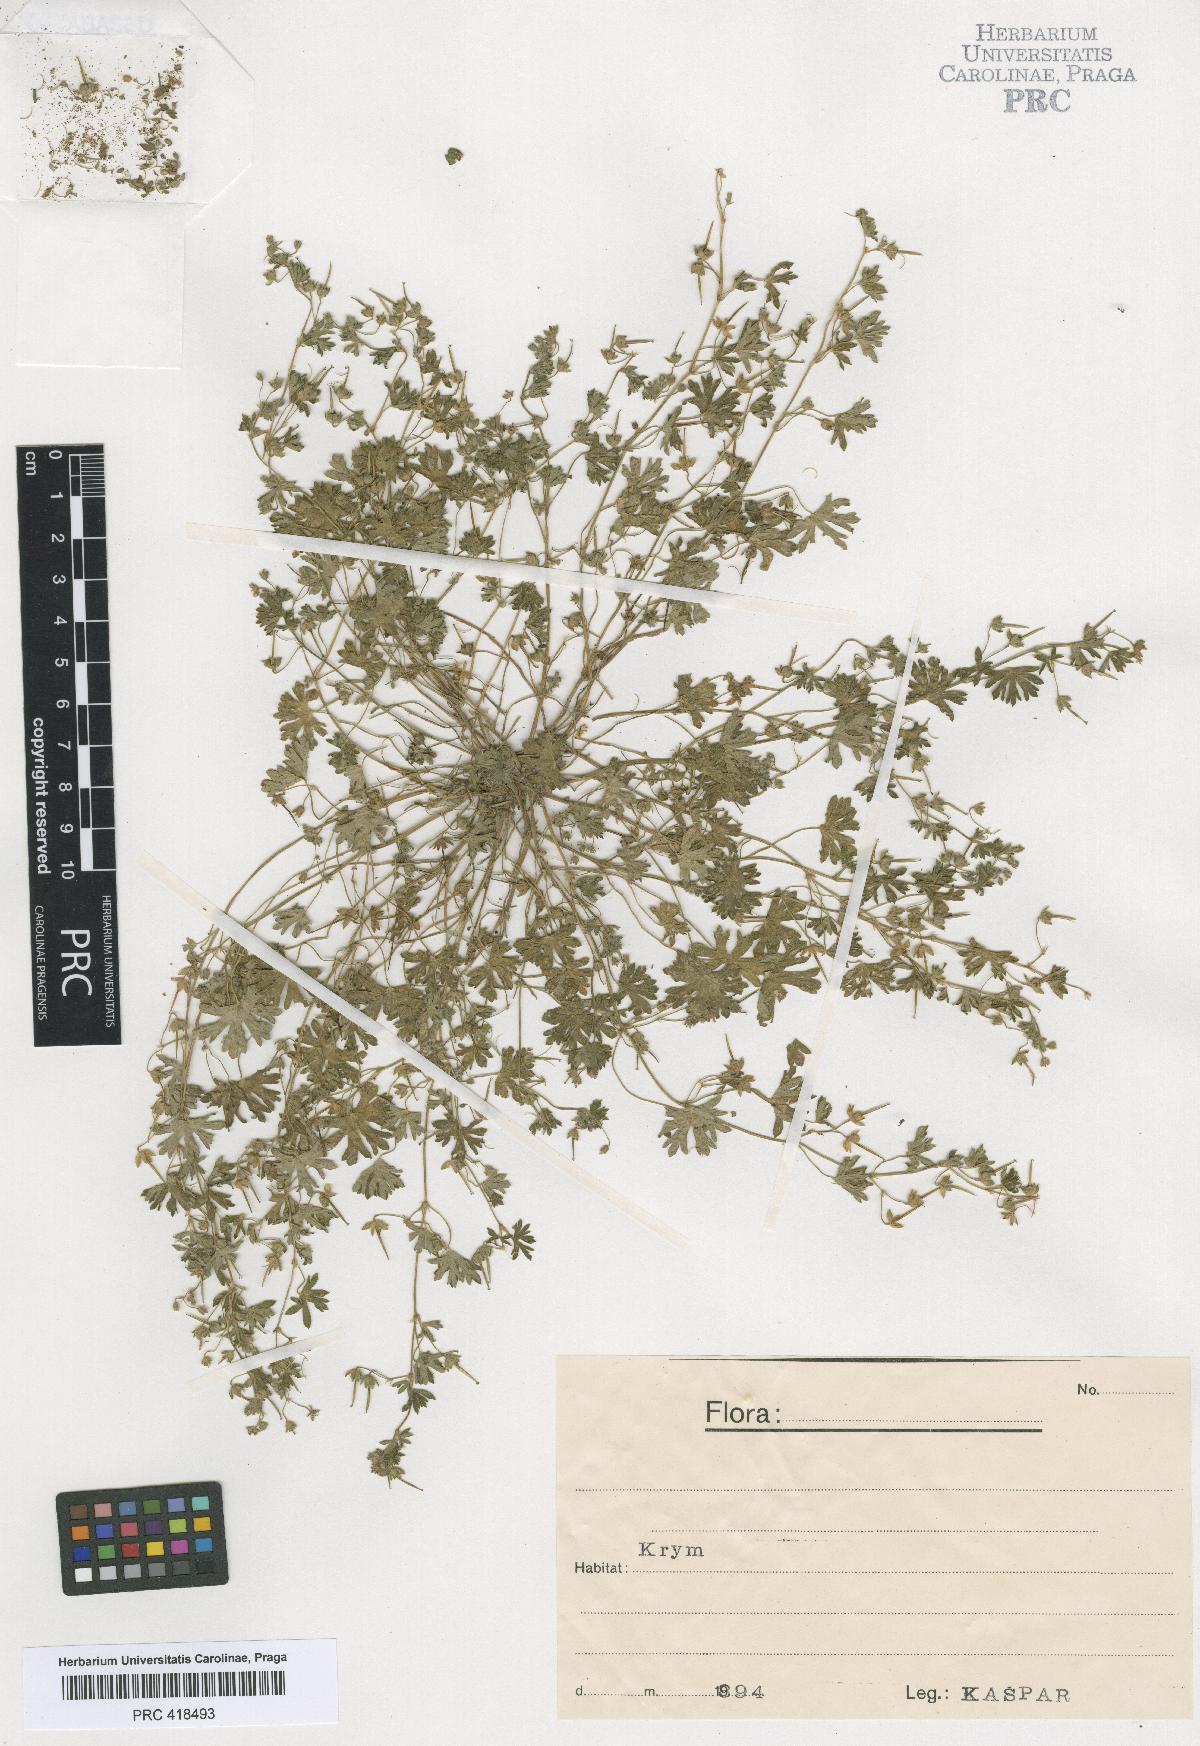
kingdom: Plantae
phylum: Tracheophyta
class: Magnoliopsida
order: Geraniales
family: Geraniaceae
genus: Geranium
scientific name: Geranium pusillum
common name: Small geranium
